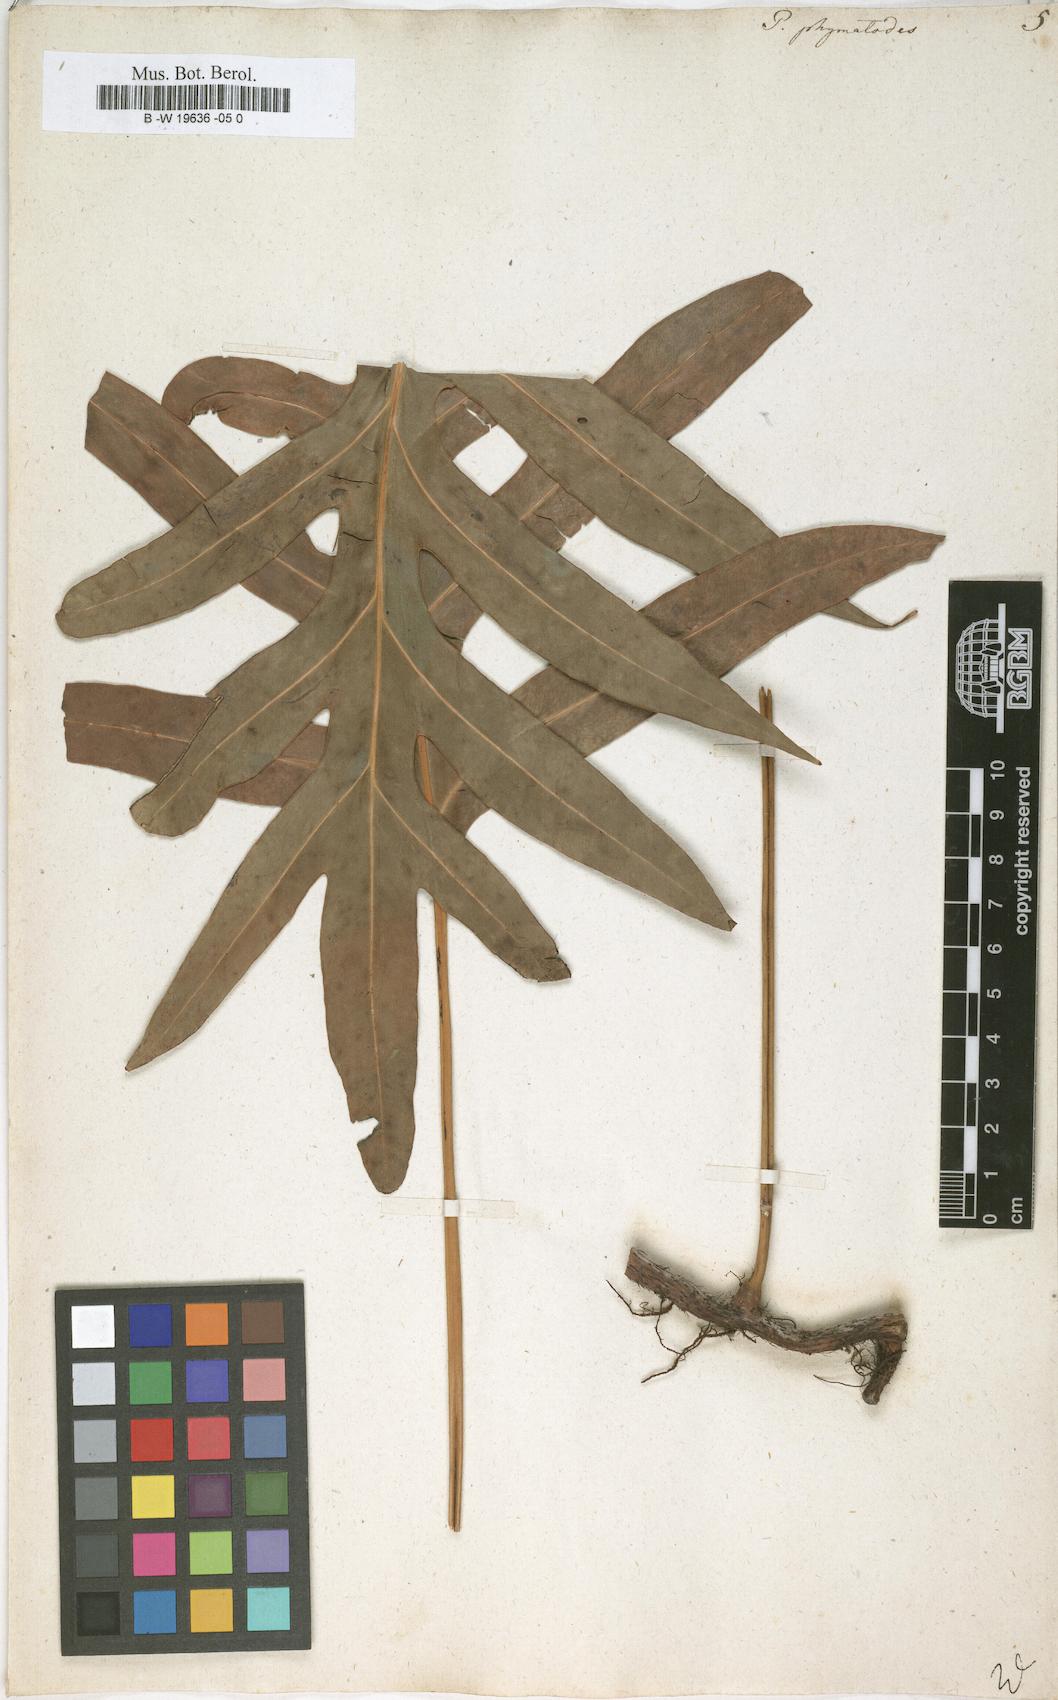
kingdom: Plantae
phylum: Tracheophyta
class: Polypodiopsida
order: Polypodiales
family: Polypodiaceae
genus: Microsorum
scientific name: Microsorum scolopendria
